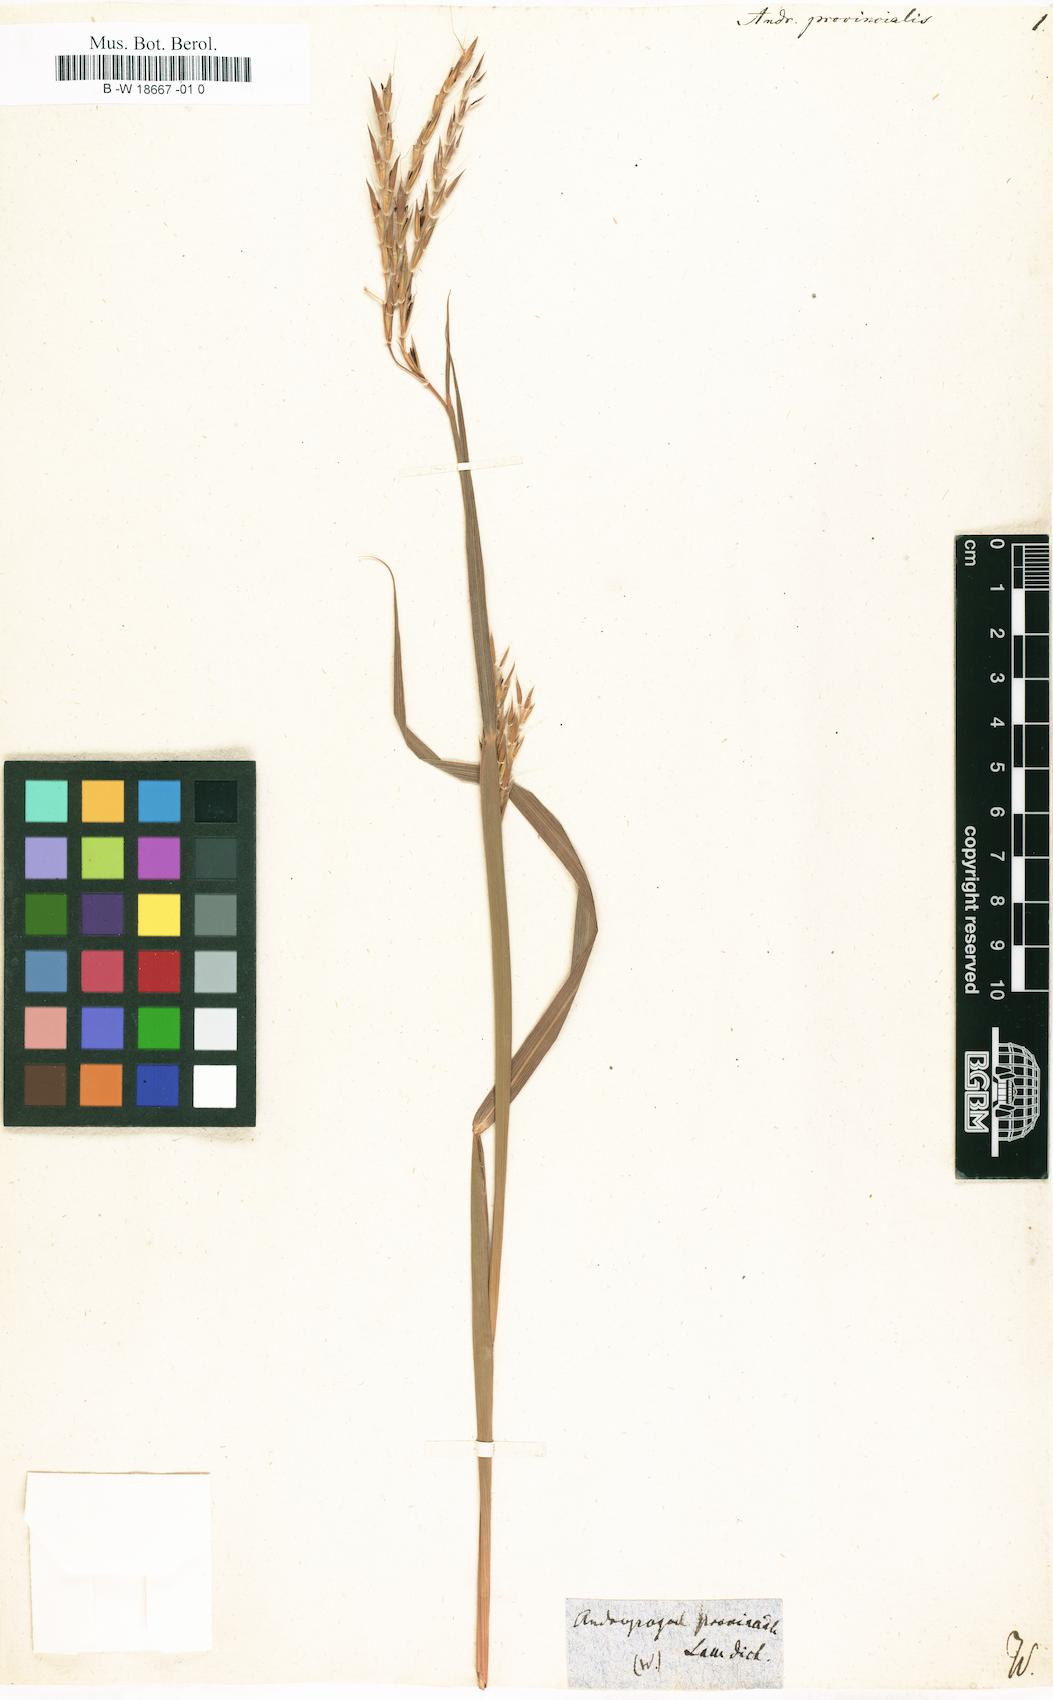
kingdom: Plantae
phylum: Tracheophyta
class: Liliopsida
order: Poales
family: Poaceae
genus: Andropogon
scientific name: Andropogon gerardi
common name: Big bluestem
